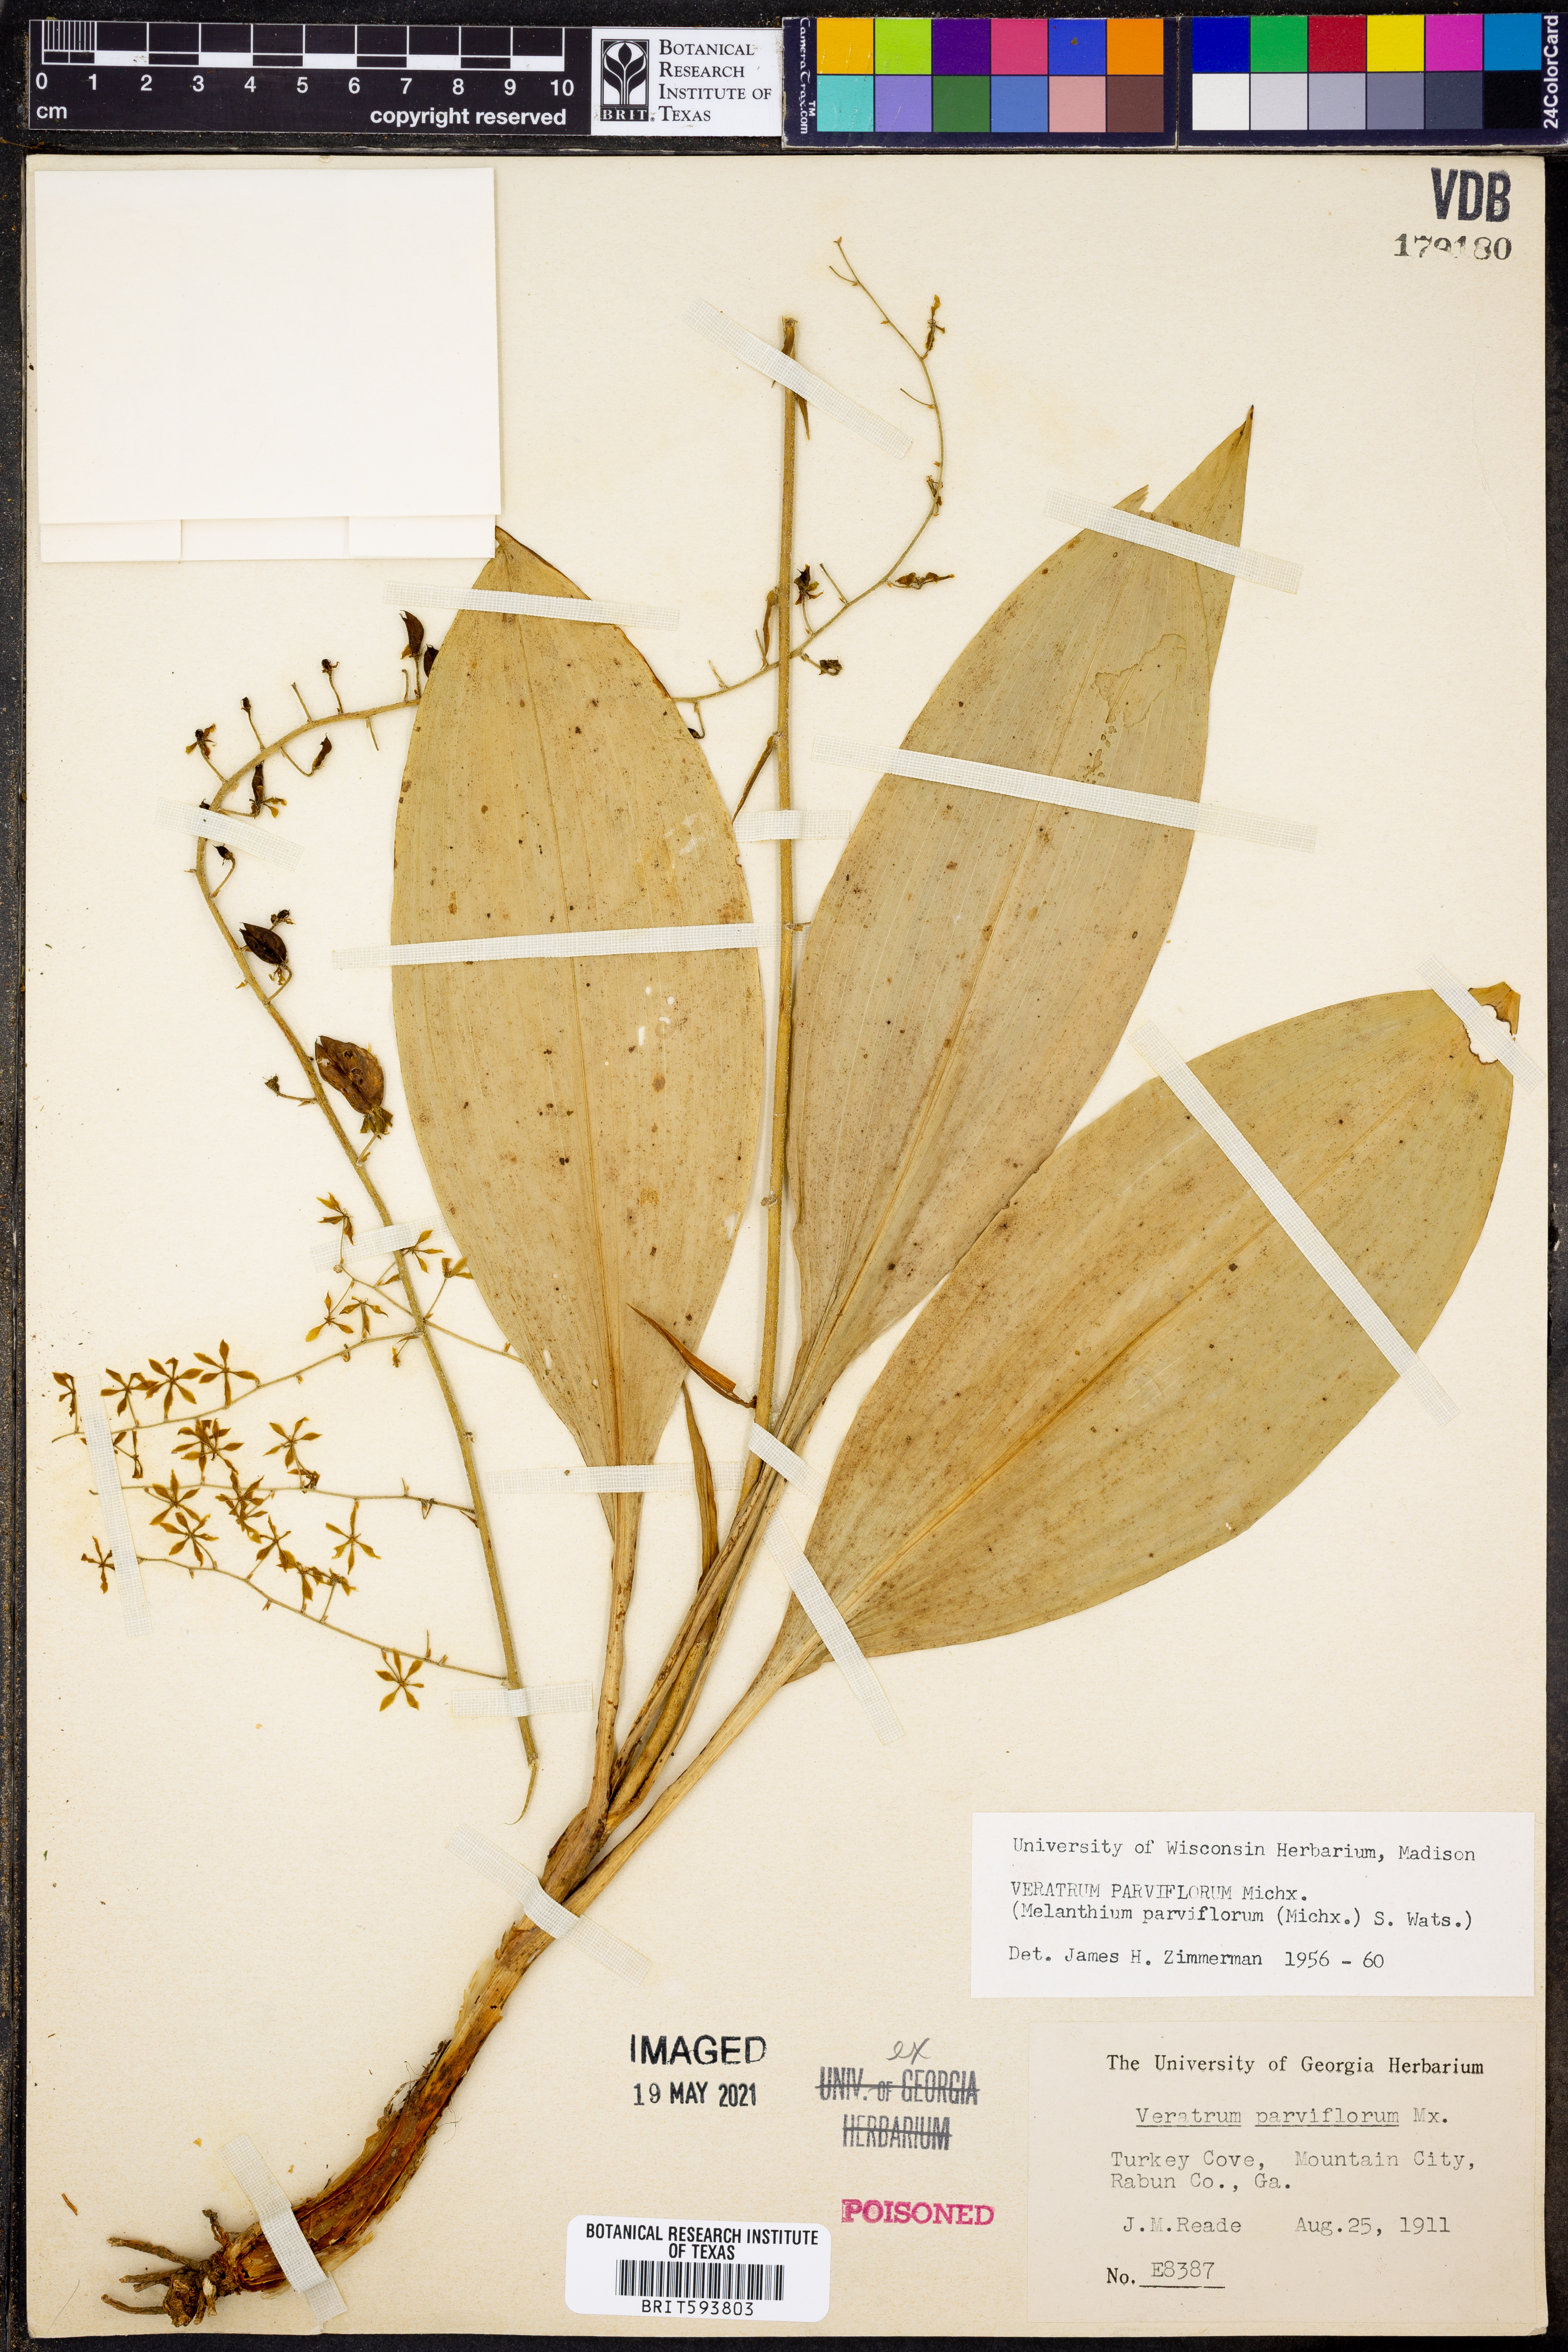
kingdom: Plantae
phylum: Tracheophyta
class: Liliopsida
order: Liliales
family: Melanthiaceae
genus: Melanthium
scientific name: Melanthium parviflorum
